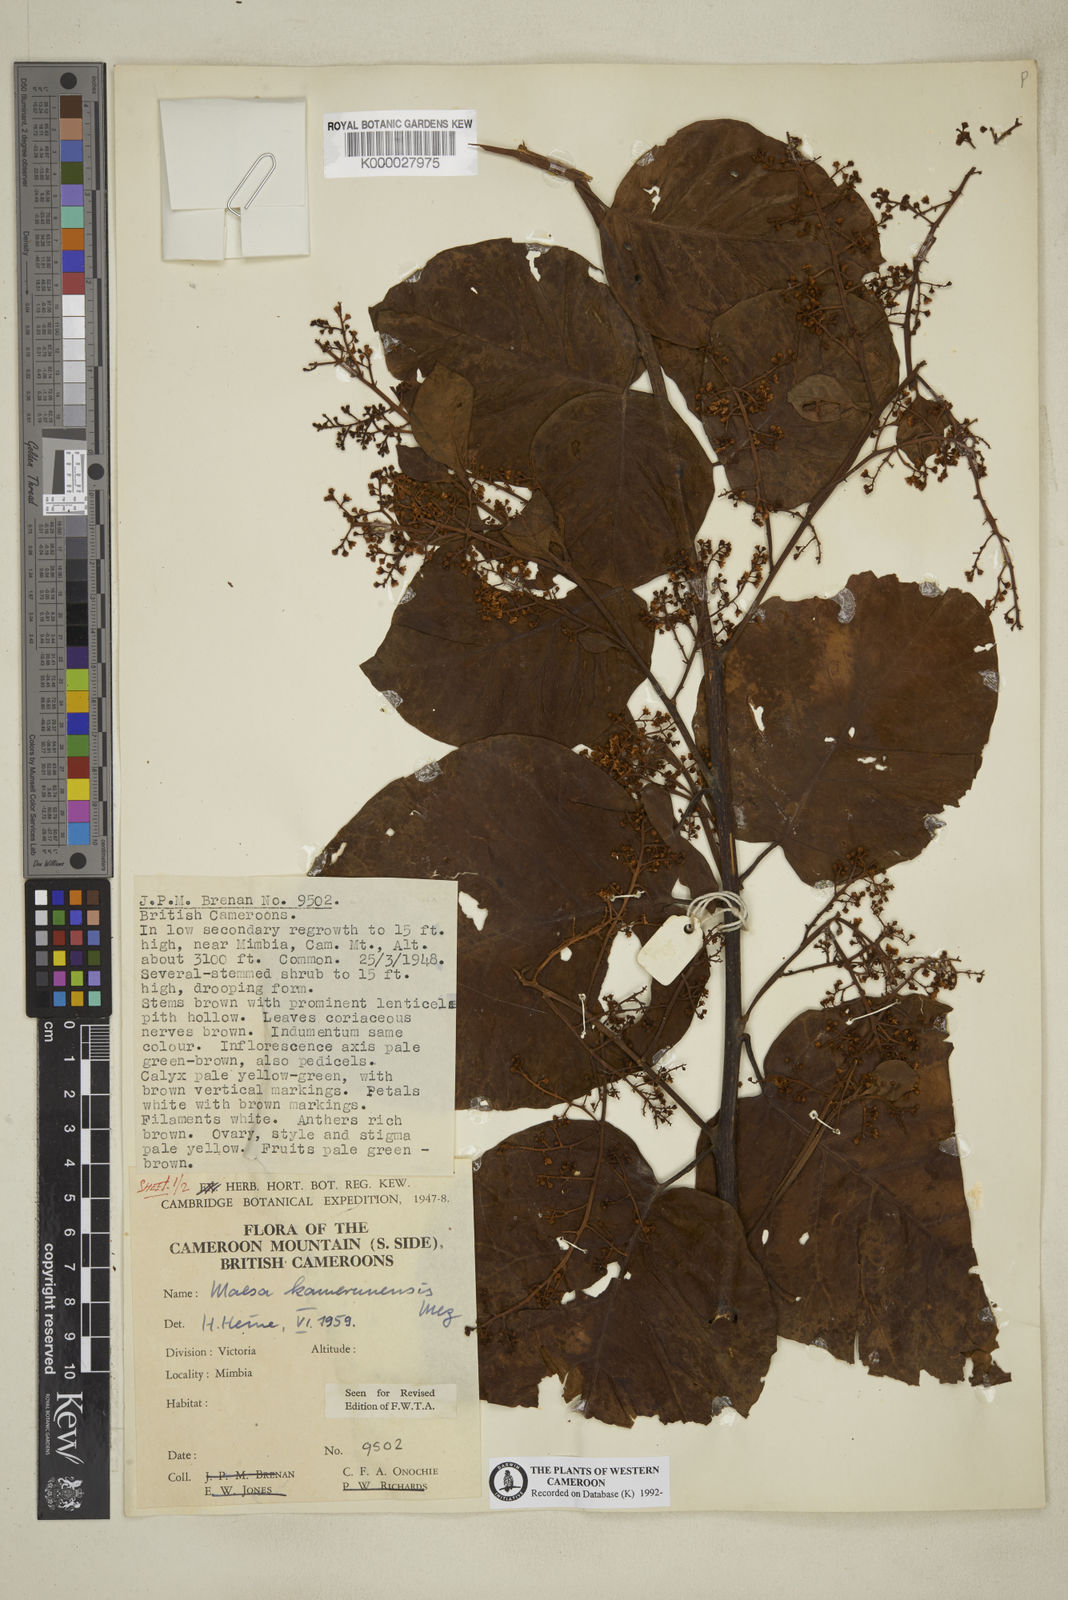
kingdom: Plantae
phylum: Tracheophyta
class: Magnoliopsida
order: Ericales
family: Primulaceae
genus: Maesa
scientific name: Maesa kamerunensis
